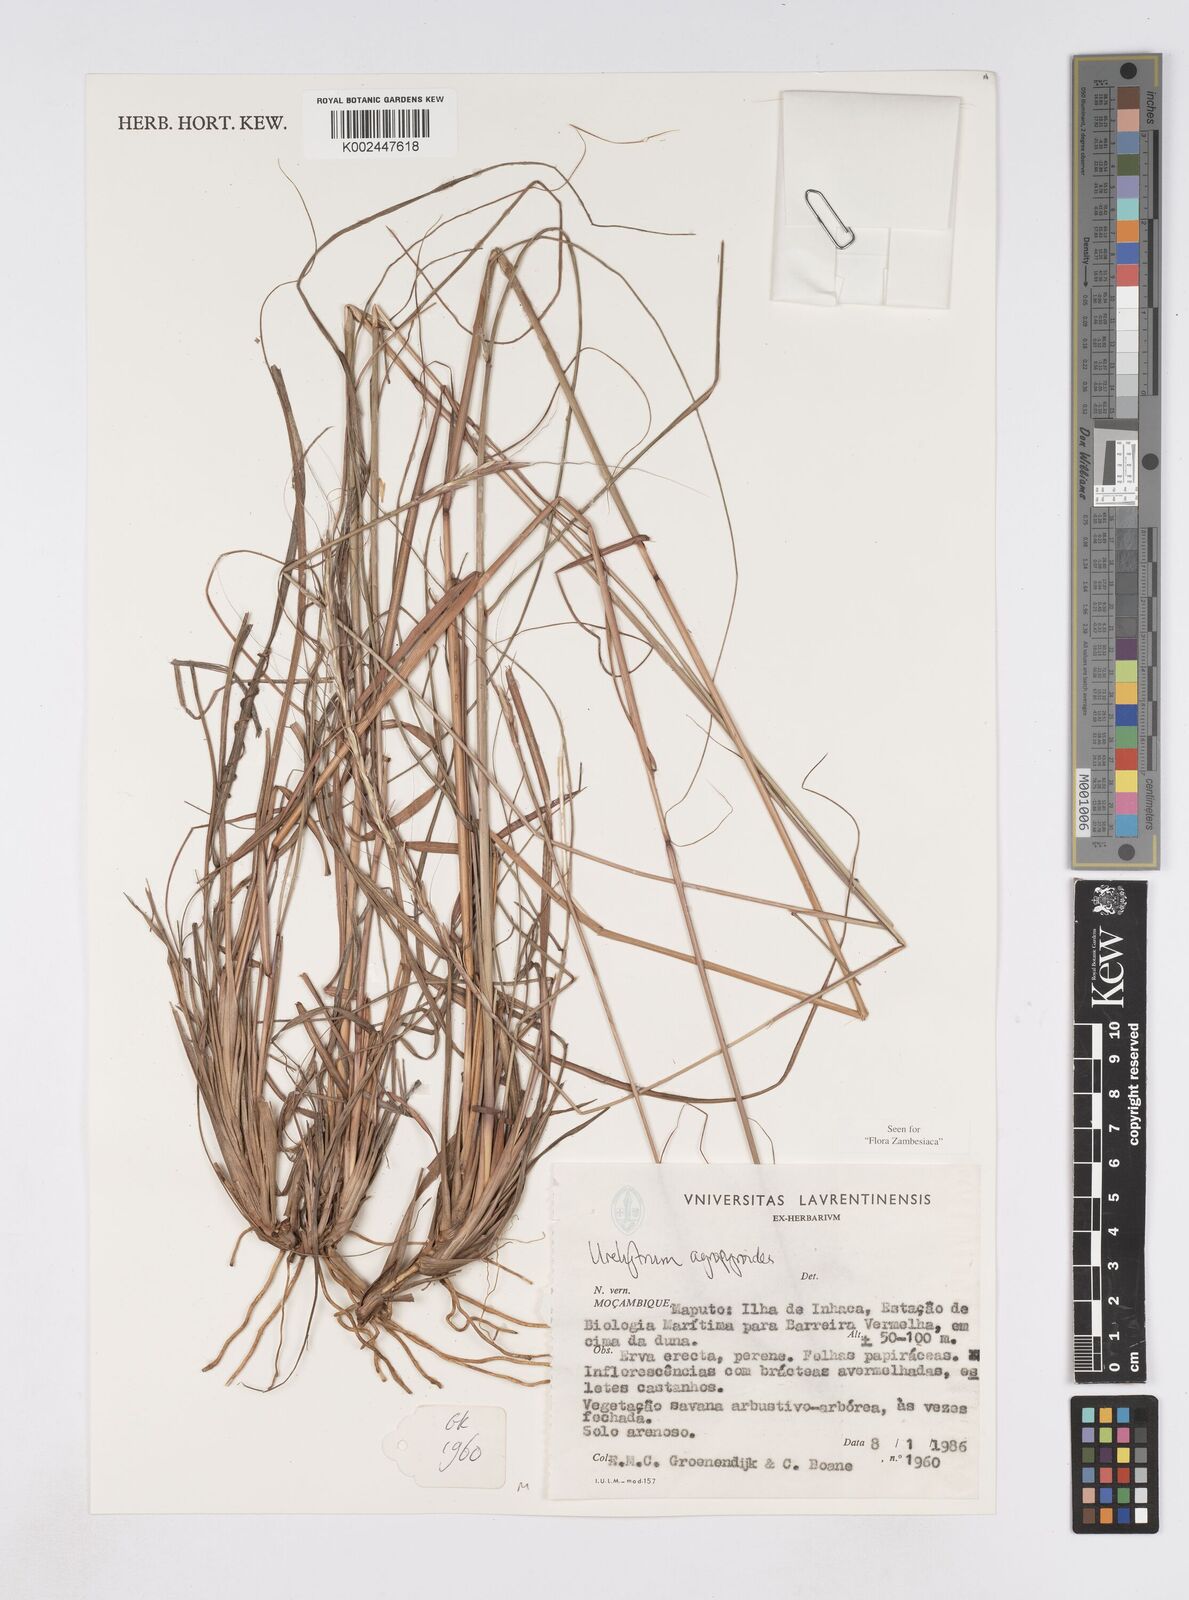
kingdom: Plantae
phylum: Tracheophyta
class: Liliopsida
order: Poales
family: Poaceae
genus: Urelytrum
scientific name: Urelytrum agropyroides
